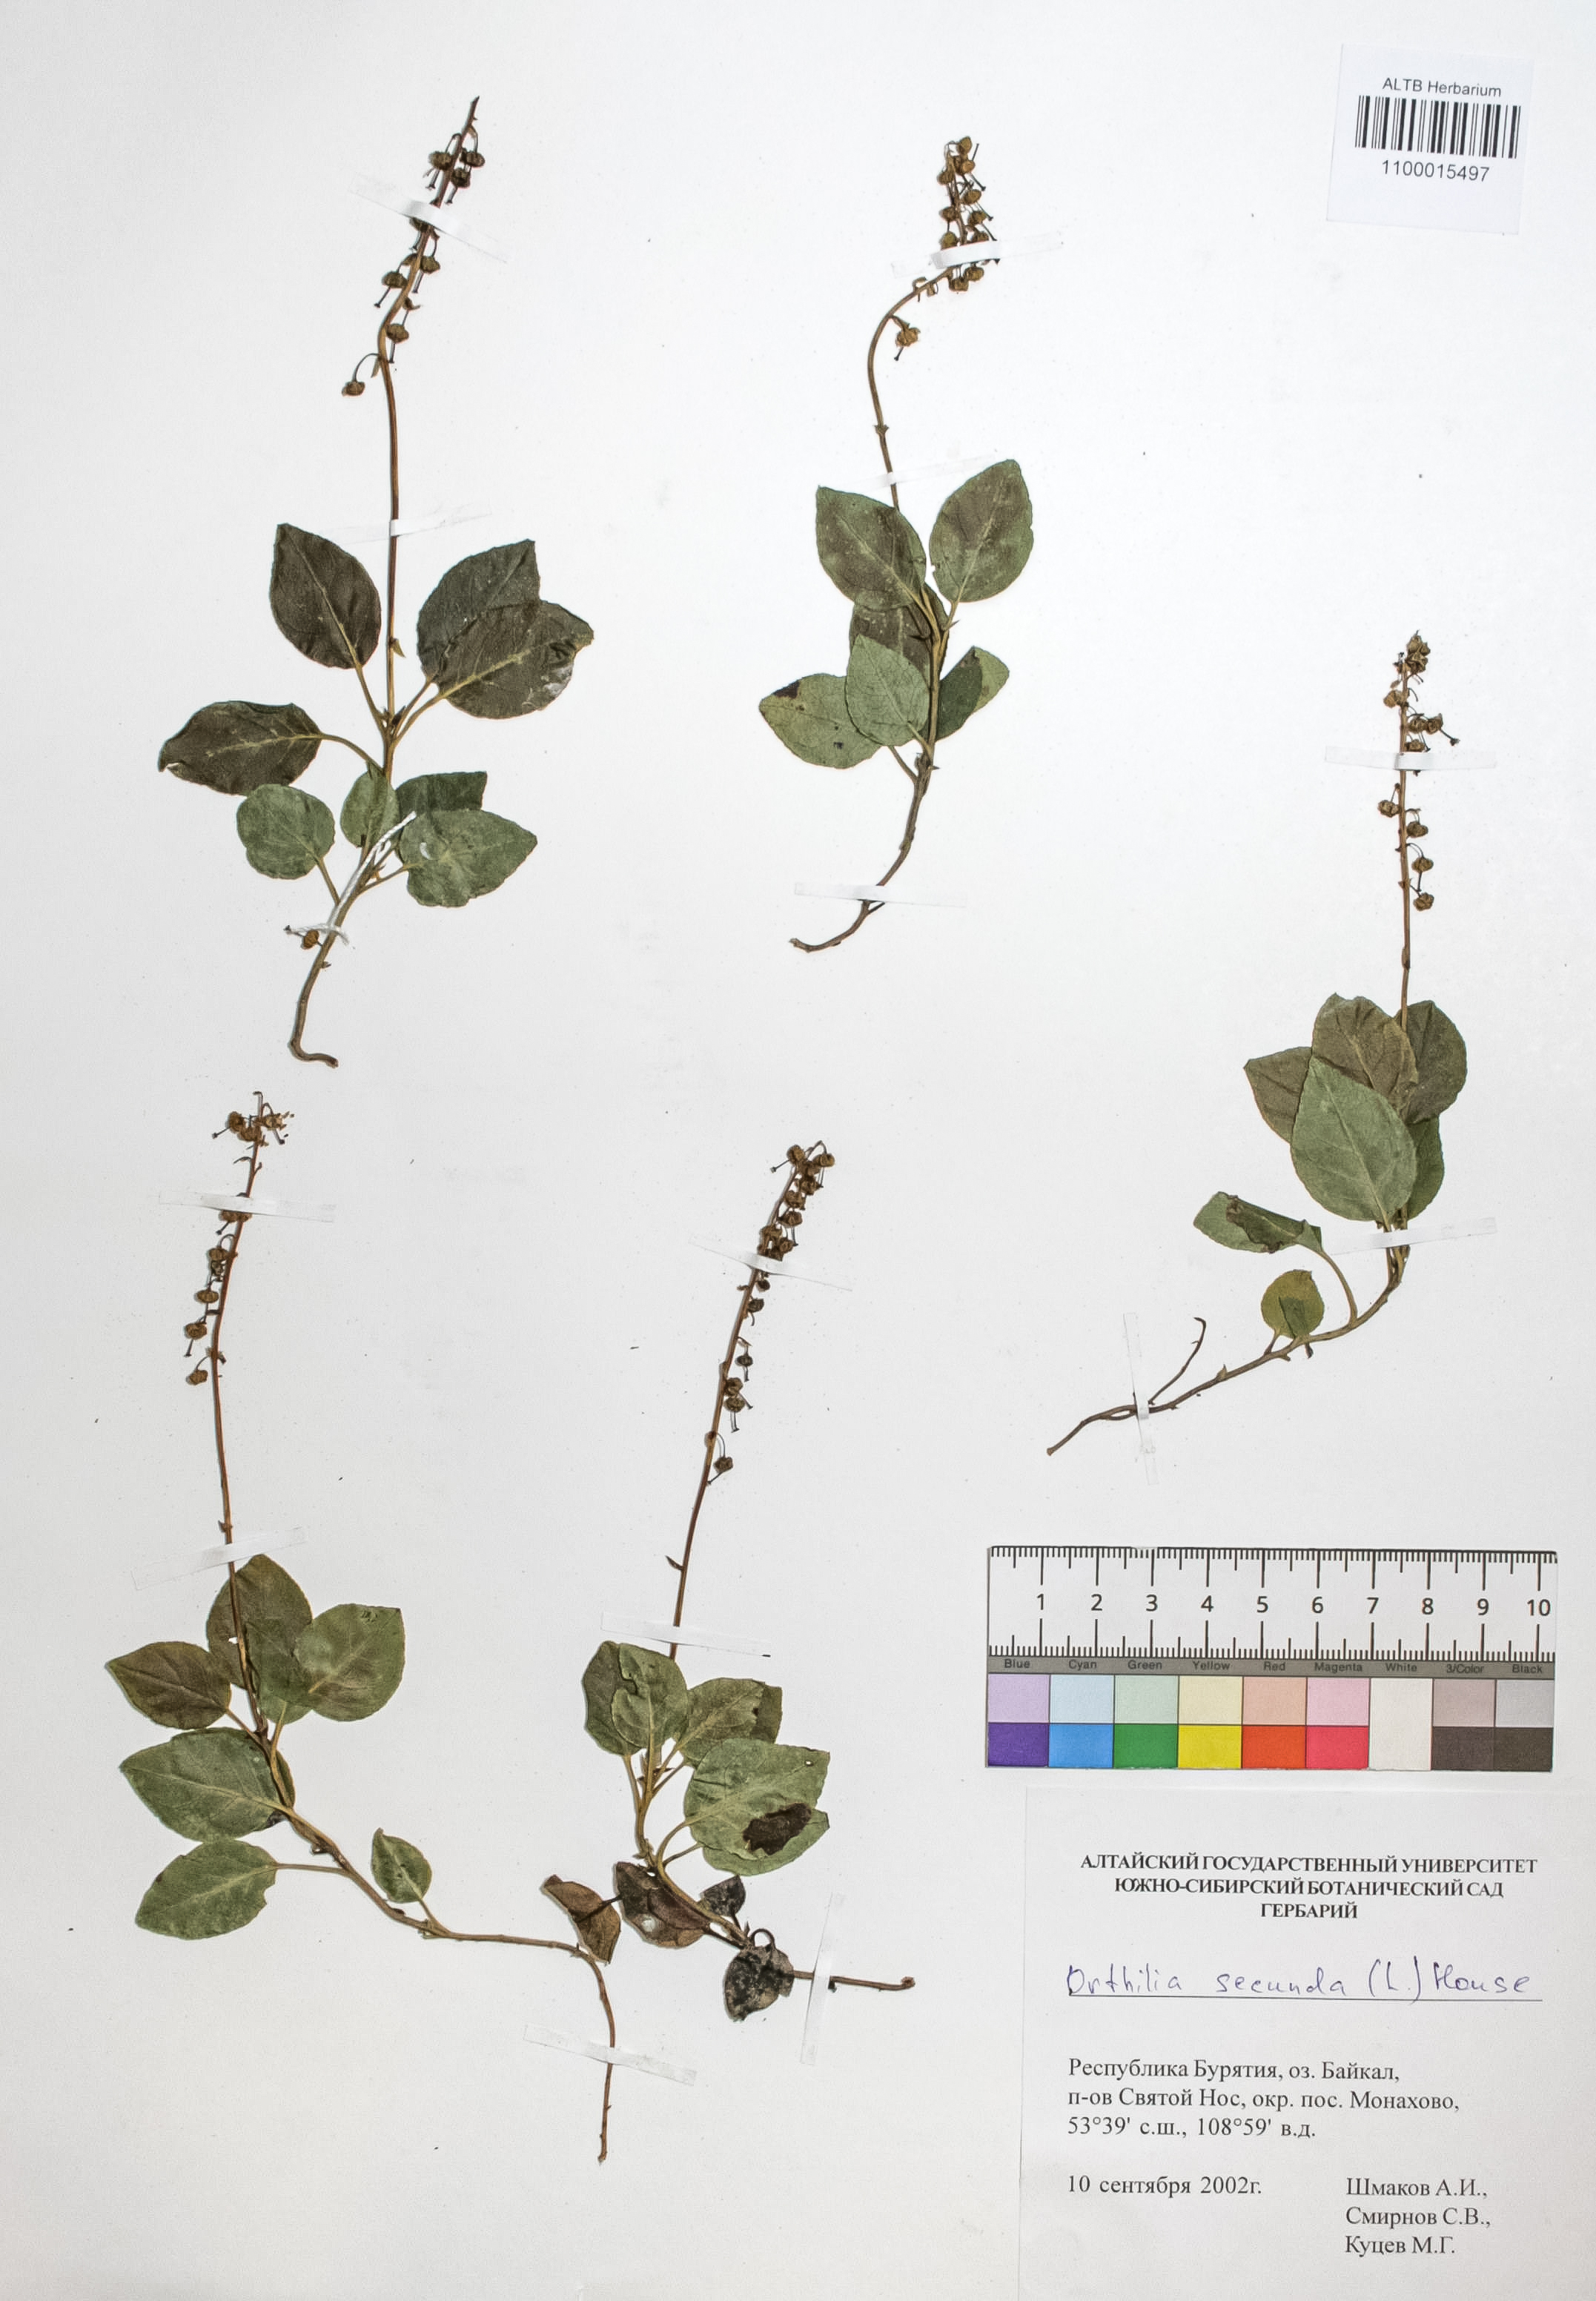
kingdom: Plantae
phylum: Tracheophyta
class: Magnoliopsida
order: Ericales
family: Ericaceae
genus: Orthilia
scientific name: Orthilia secunda
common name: One-sided orthilia
